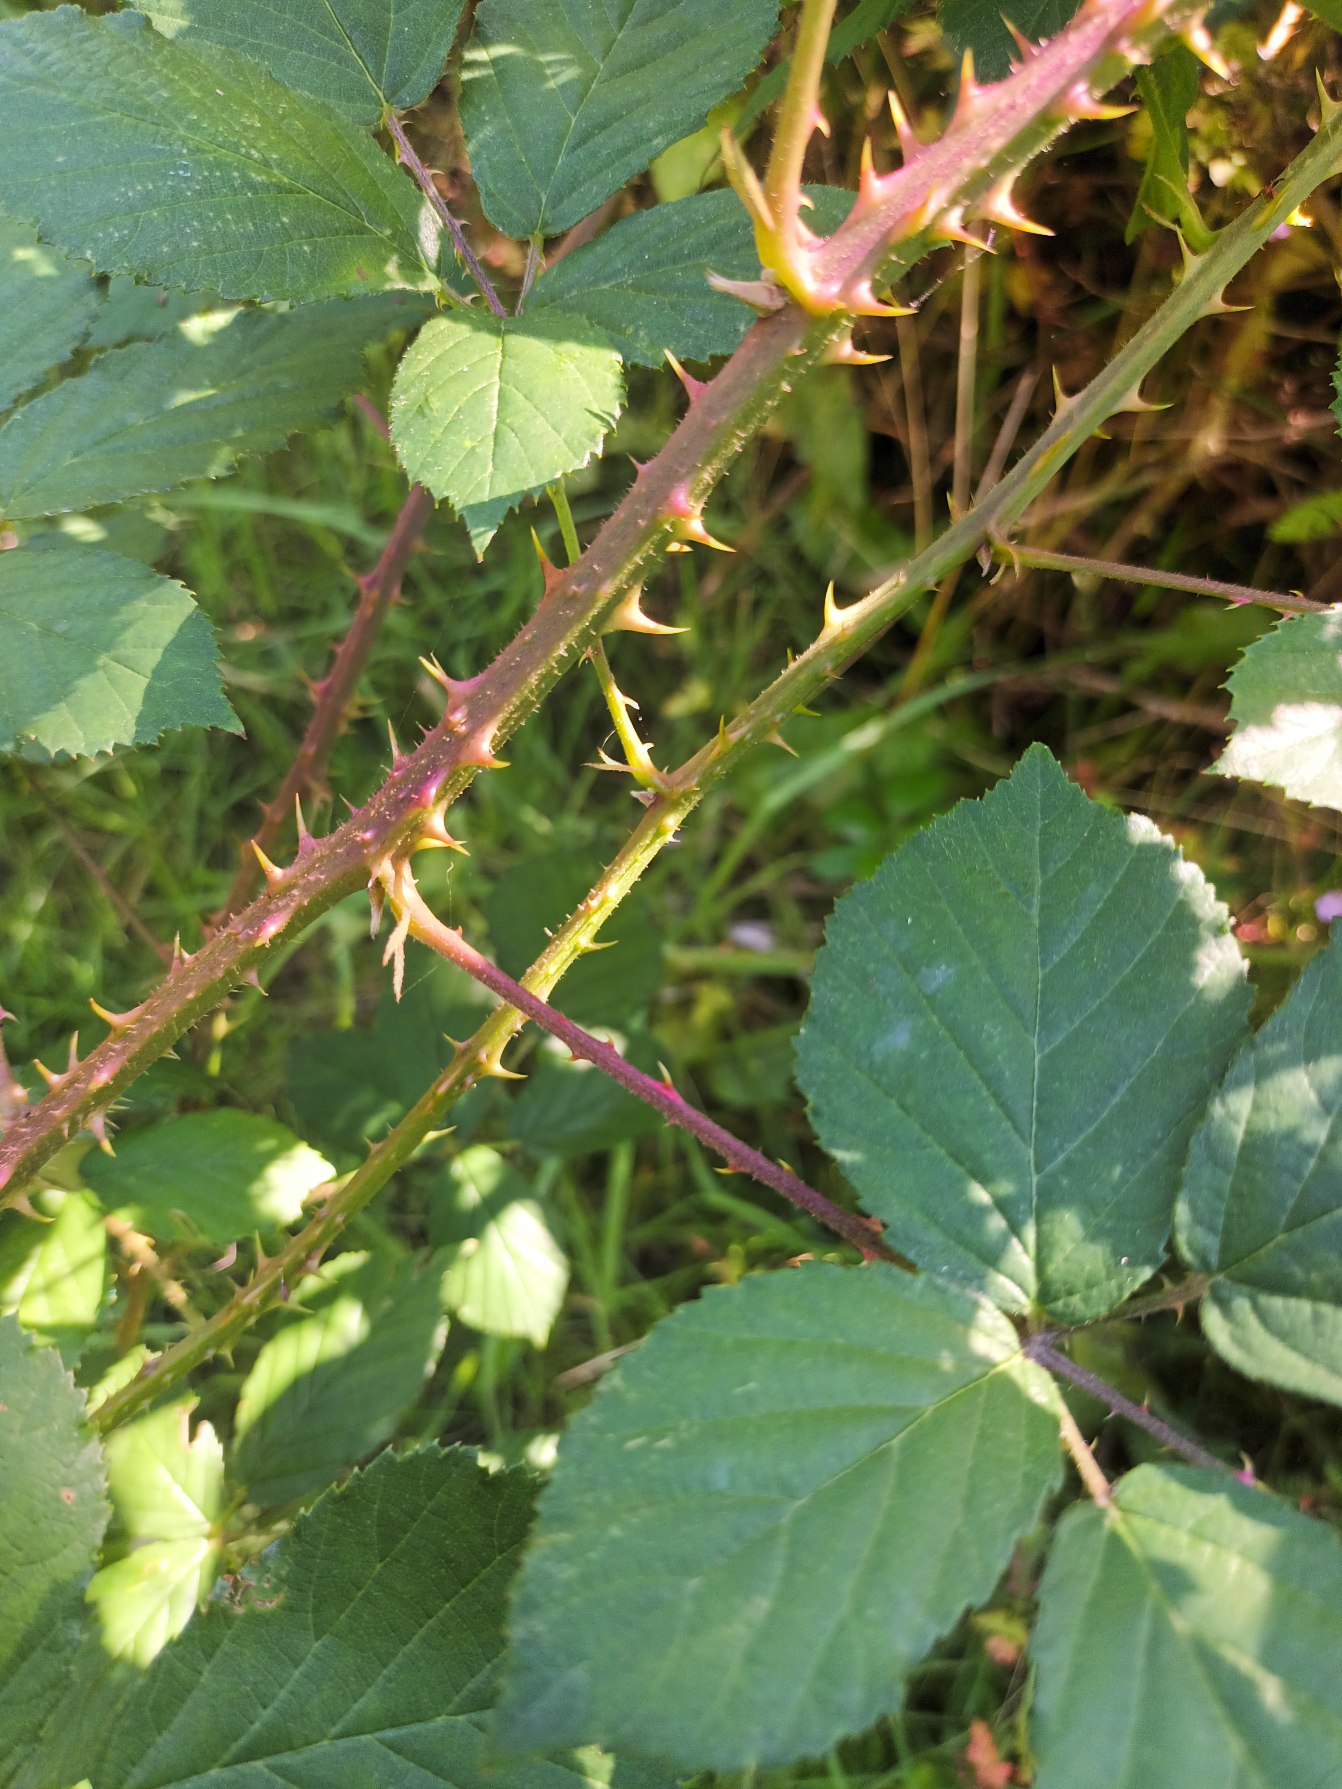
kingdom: Plantae
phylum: Tracheophyta
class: Magnoliopsida
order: Rosales
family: Rosaceae
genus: Rubus
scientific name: Rubus infestus
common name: Klotornet brombær
